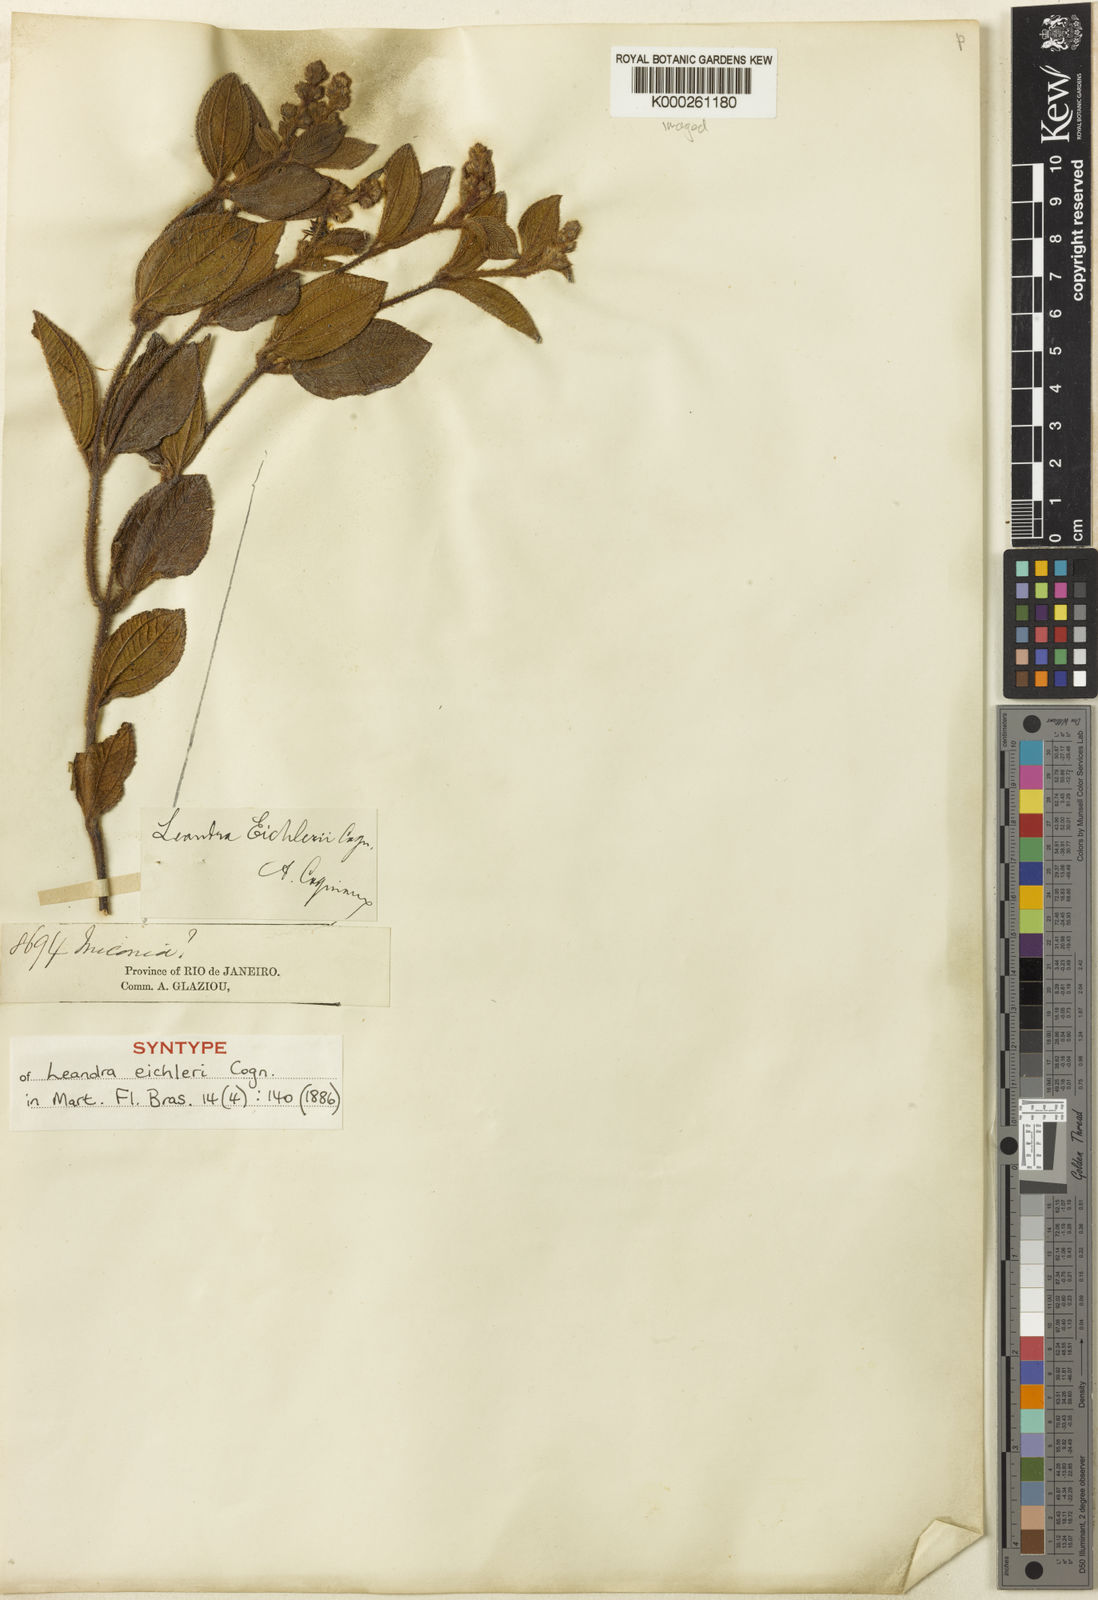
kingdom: Plantae
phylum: Tracheophyta
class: Magnoliopsida
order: Myrtales
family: Melastomataceae
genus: Miconia
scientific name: Miconia leaeichleri
